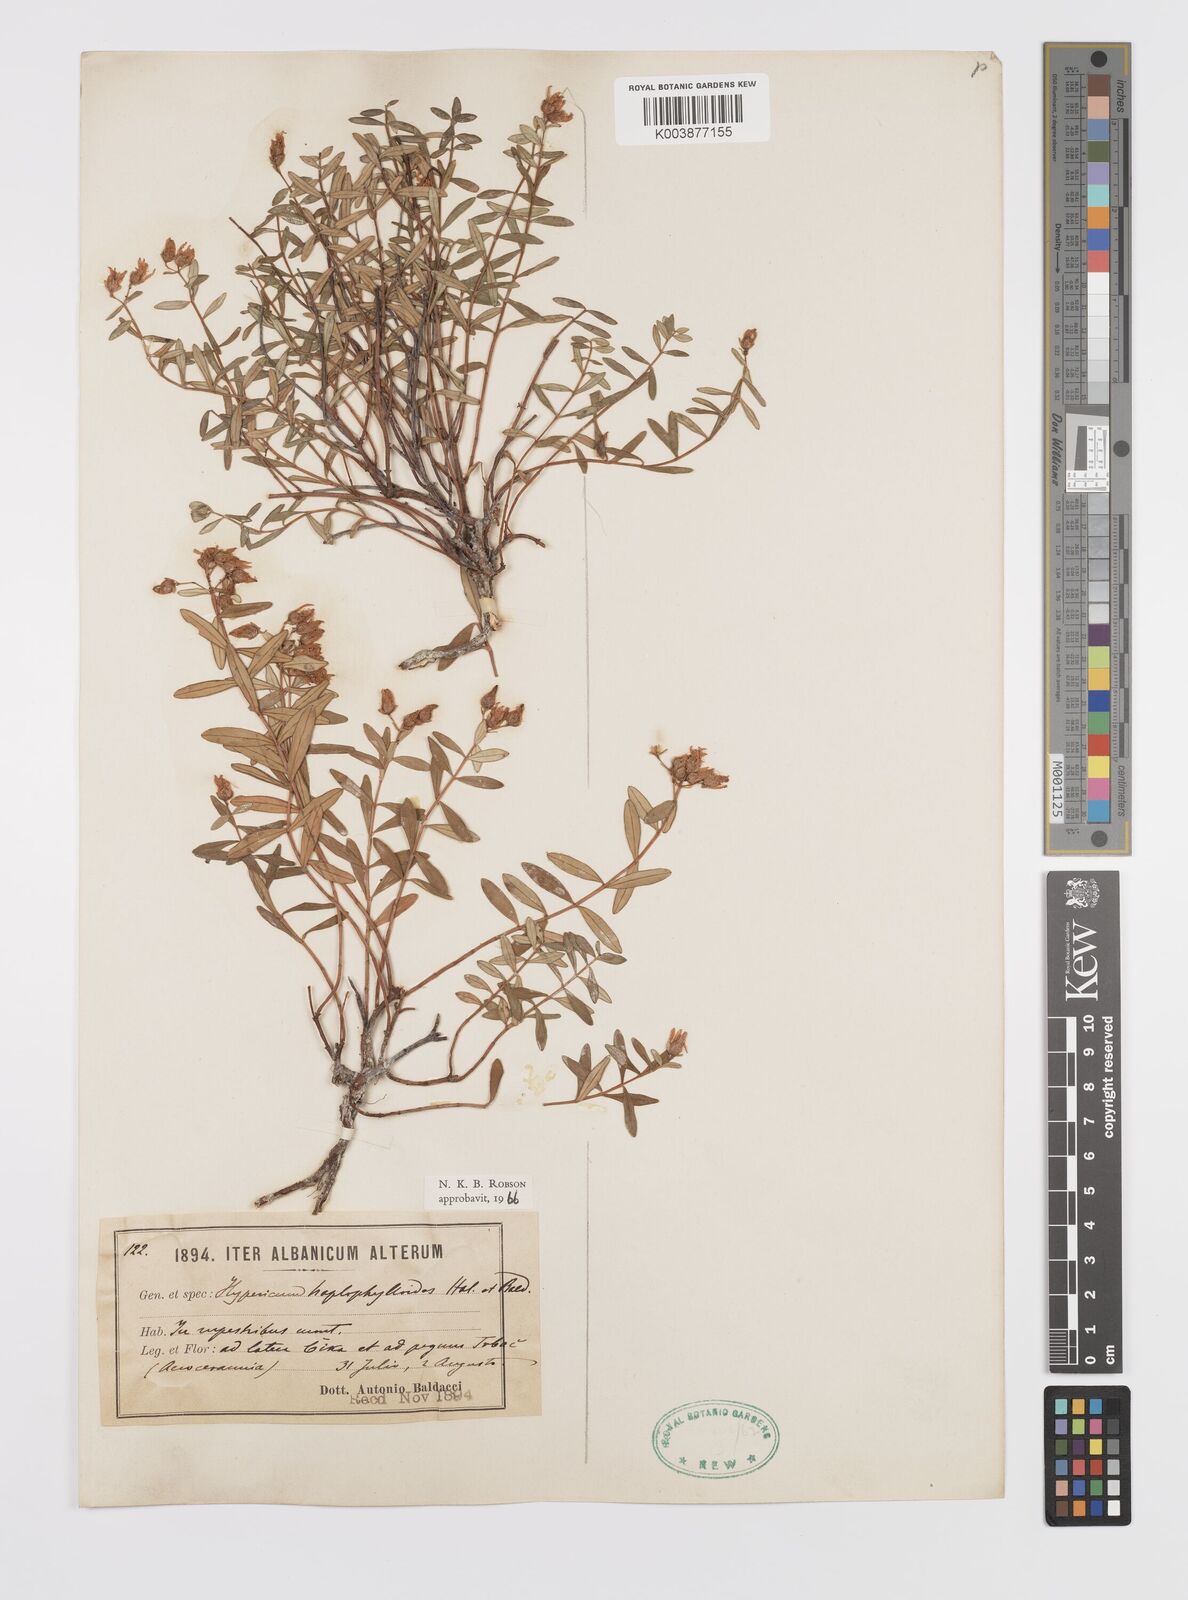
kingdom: Plantae
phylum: Tracheophyta
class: Magnoliopsida
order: Malpighiales
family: Hypericaceae
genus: Hypericum
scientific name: Hypericum haplophylloides
